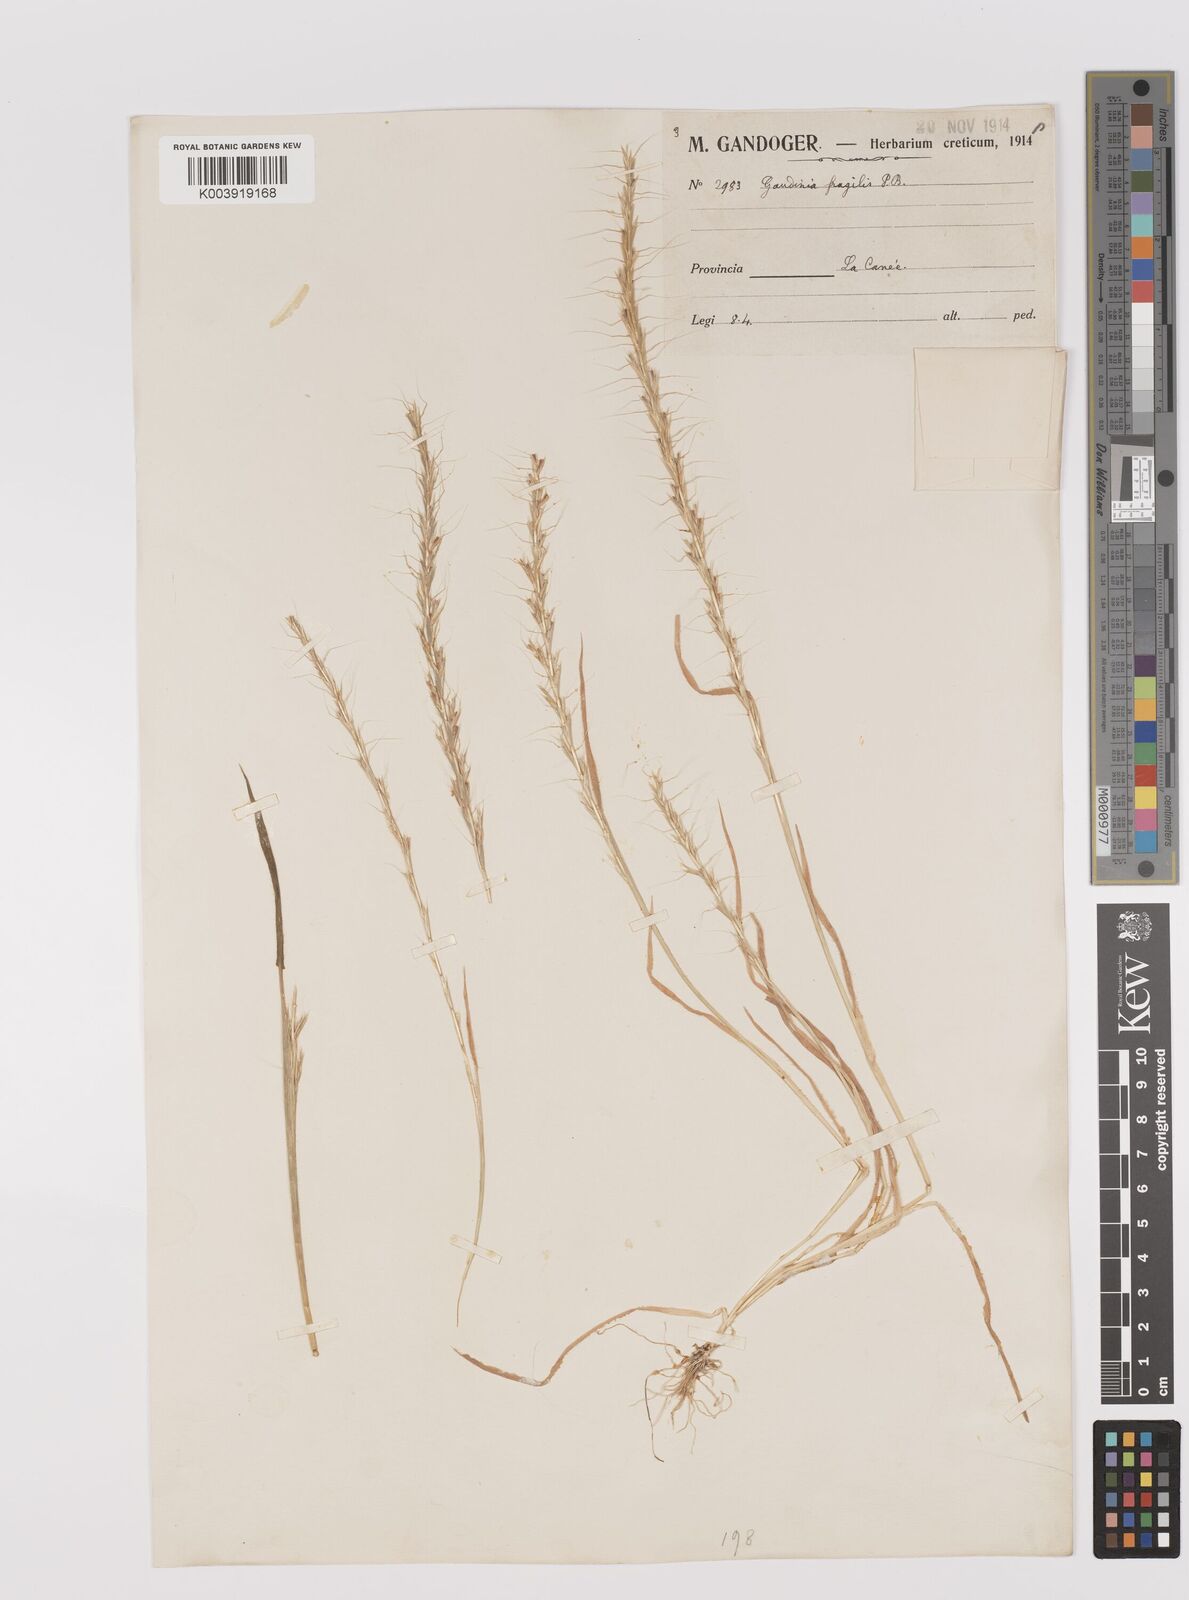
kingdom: Plantae
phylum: Tracheophyta
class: Liliopsida
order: Poales
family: Poaceae
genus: Gaudinia
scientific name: Gaudinia fragilis
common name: French oat-grass
